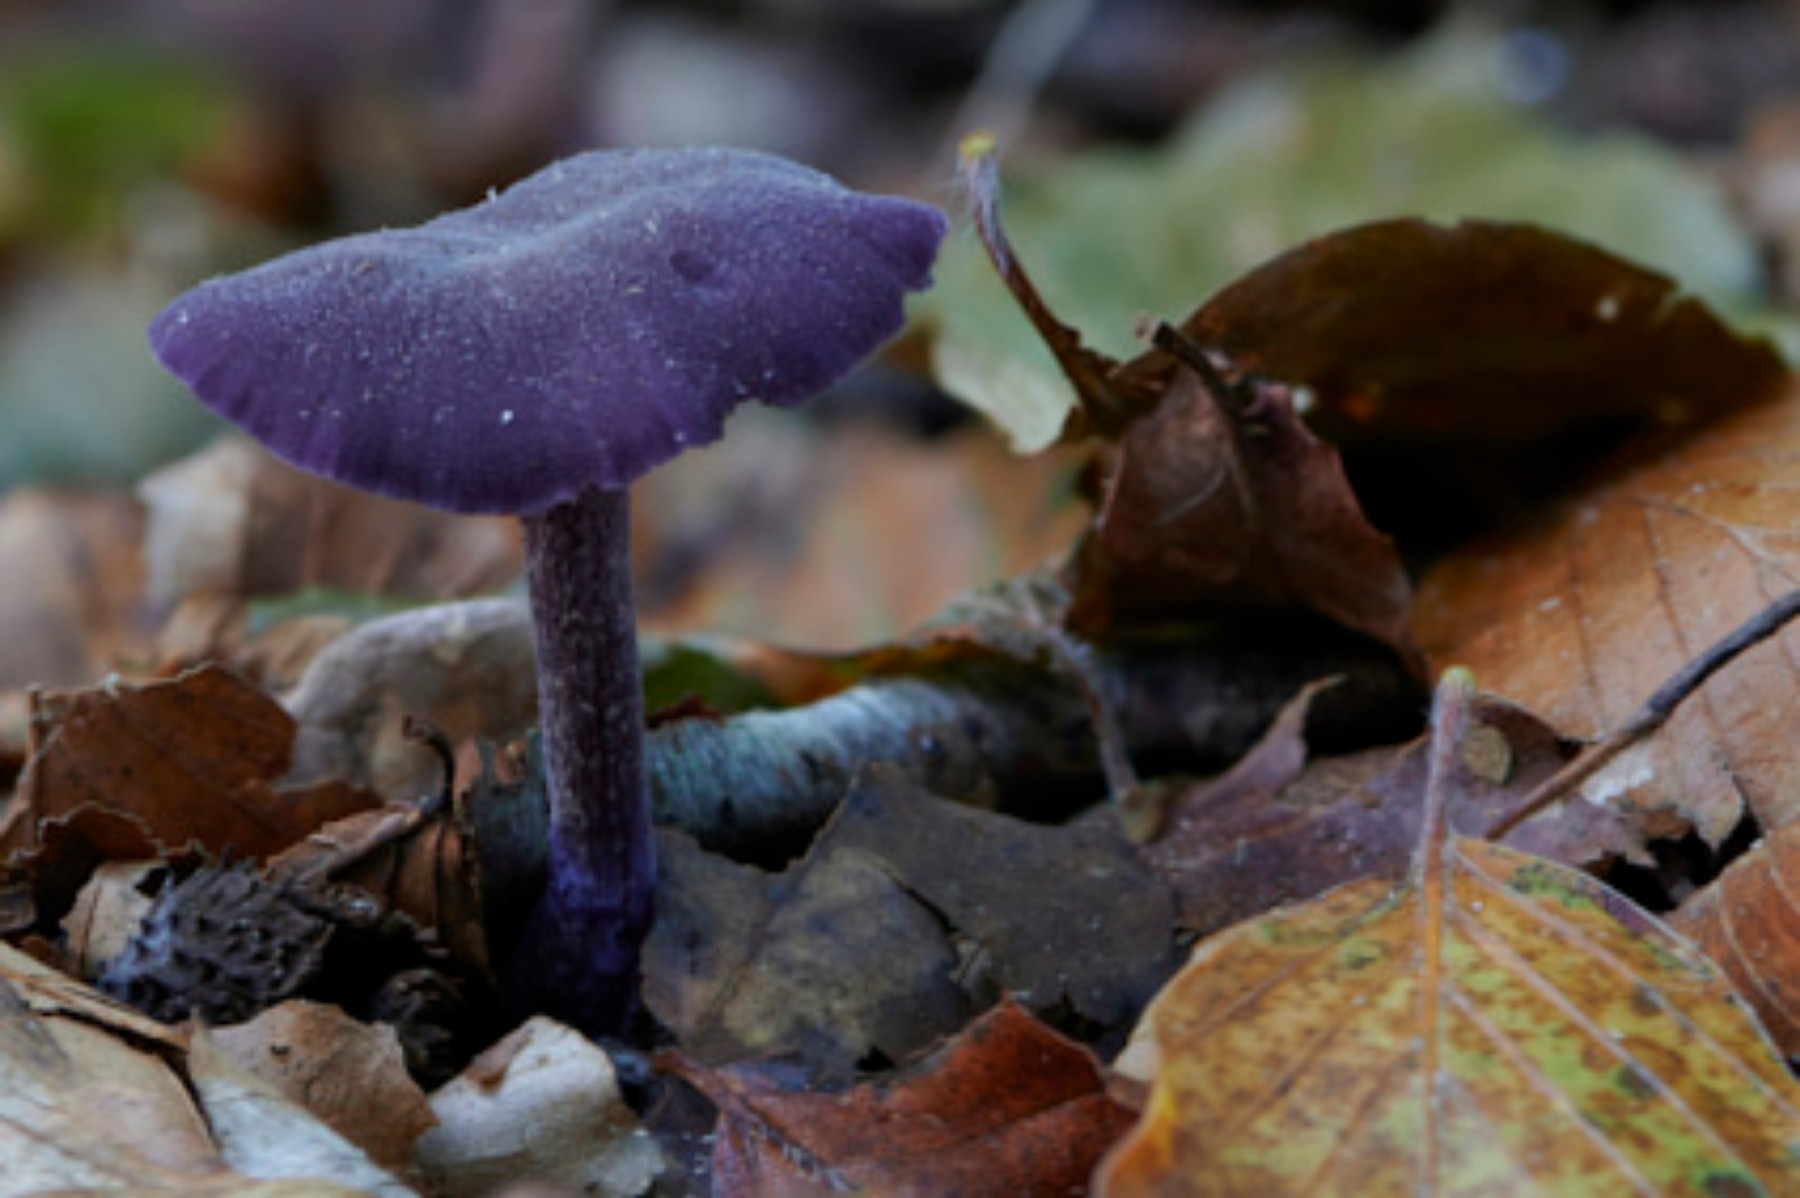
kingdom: Fungi
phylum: Basidiomycota
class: Agaricomycetes
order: Agaricales
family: Hydnangiaceae
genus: Laccaria
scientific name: Laccaria amethystina
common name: violet ametysthat
